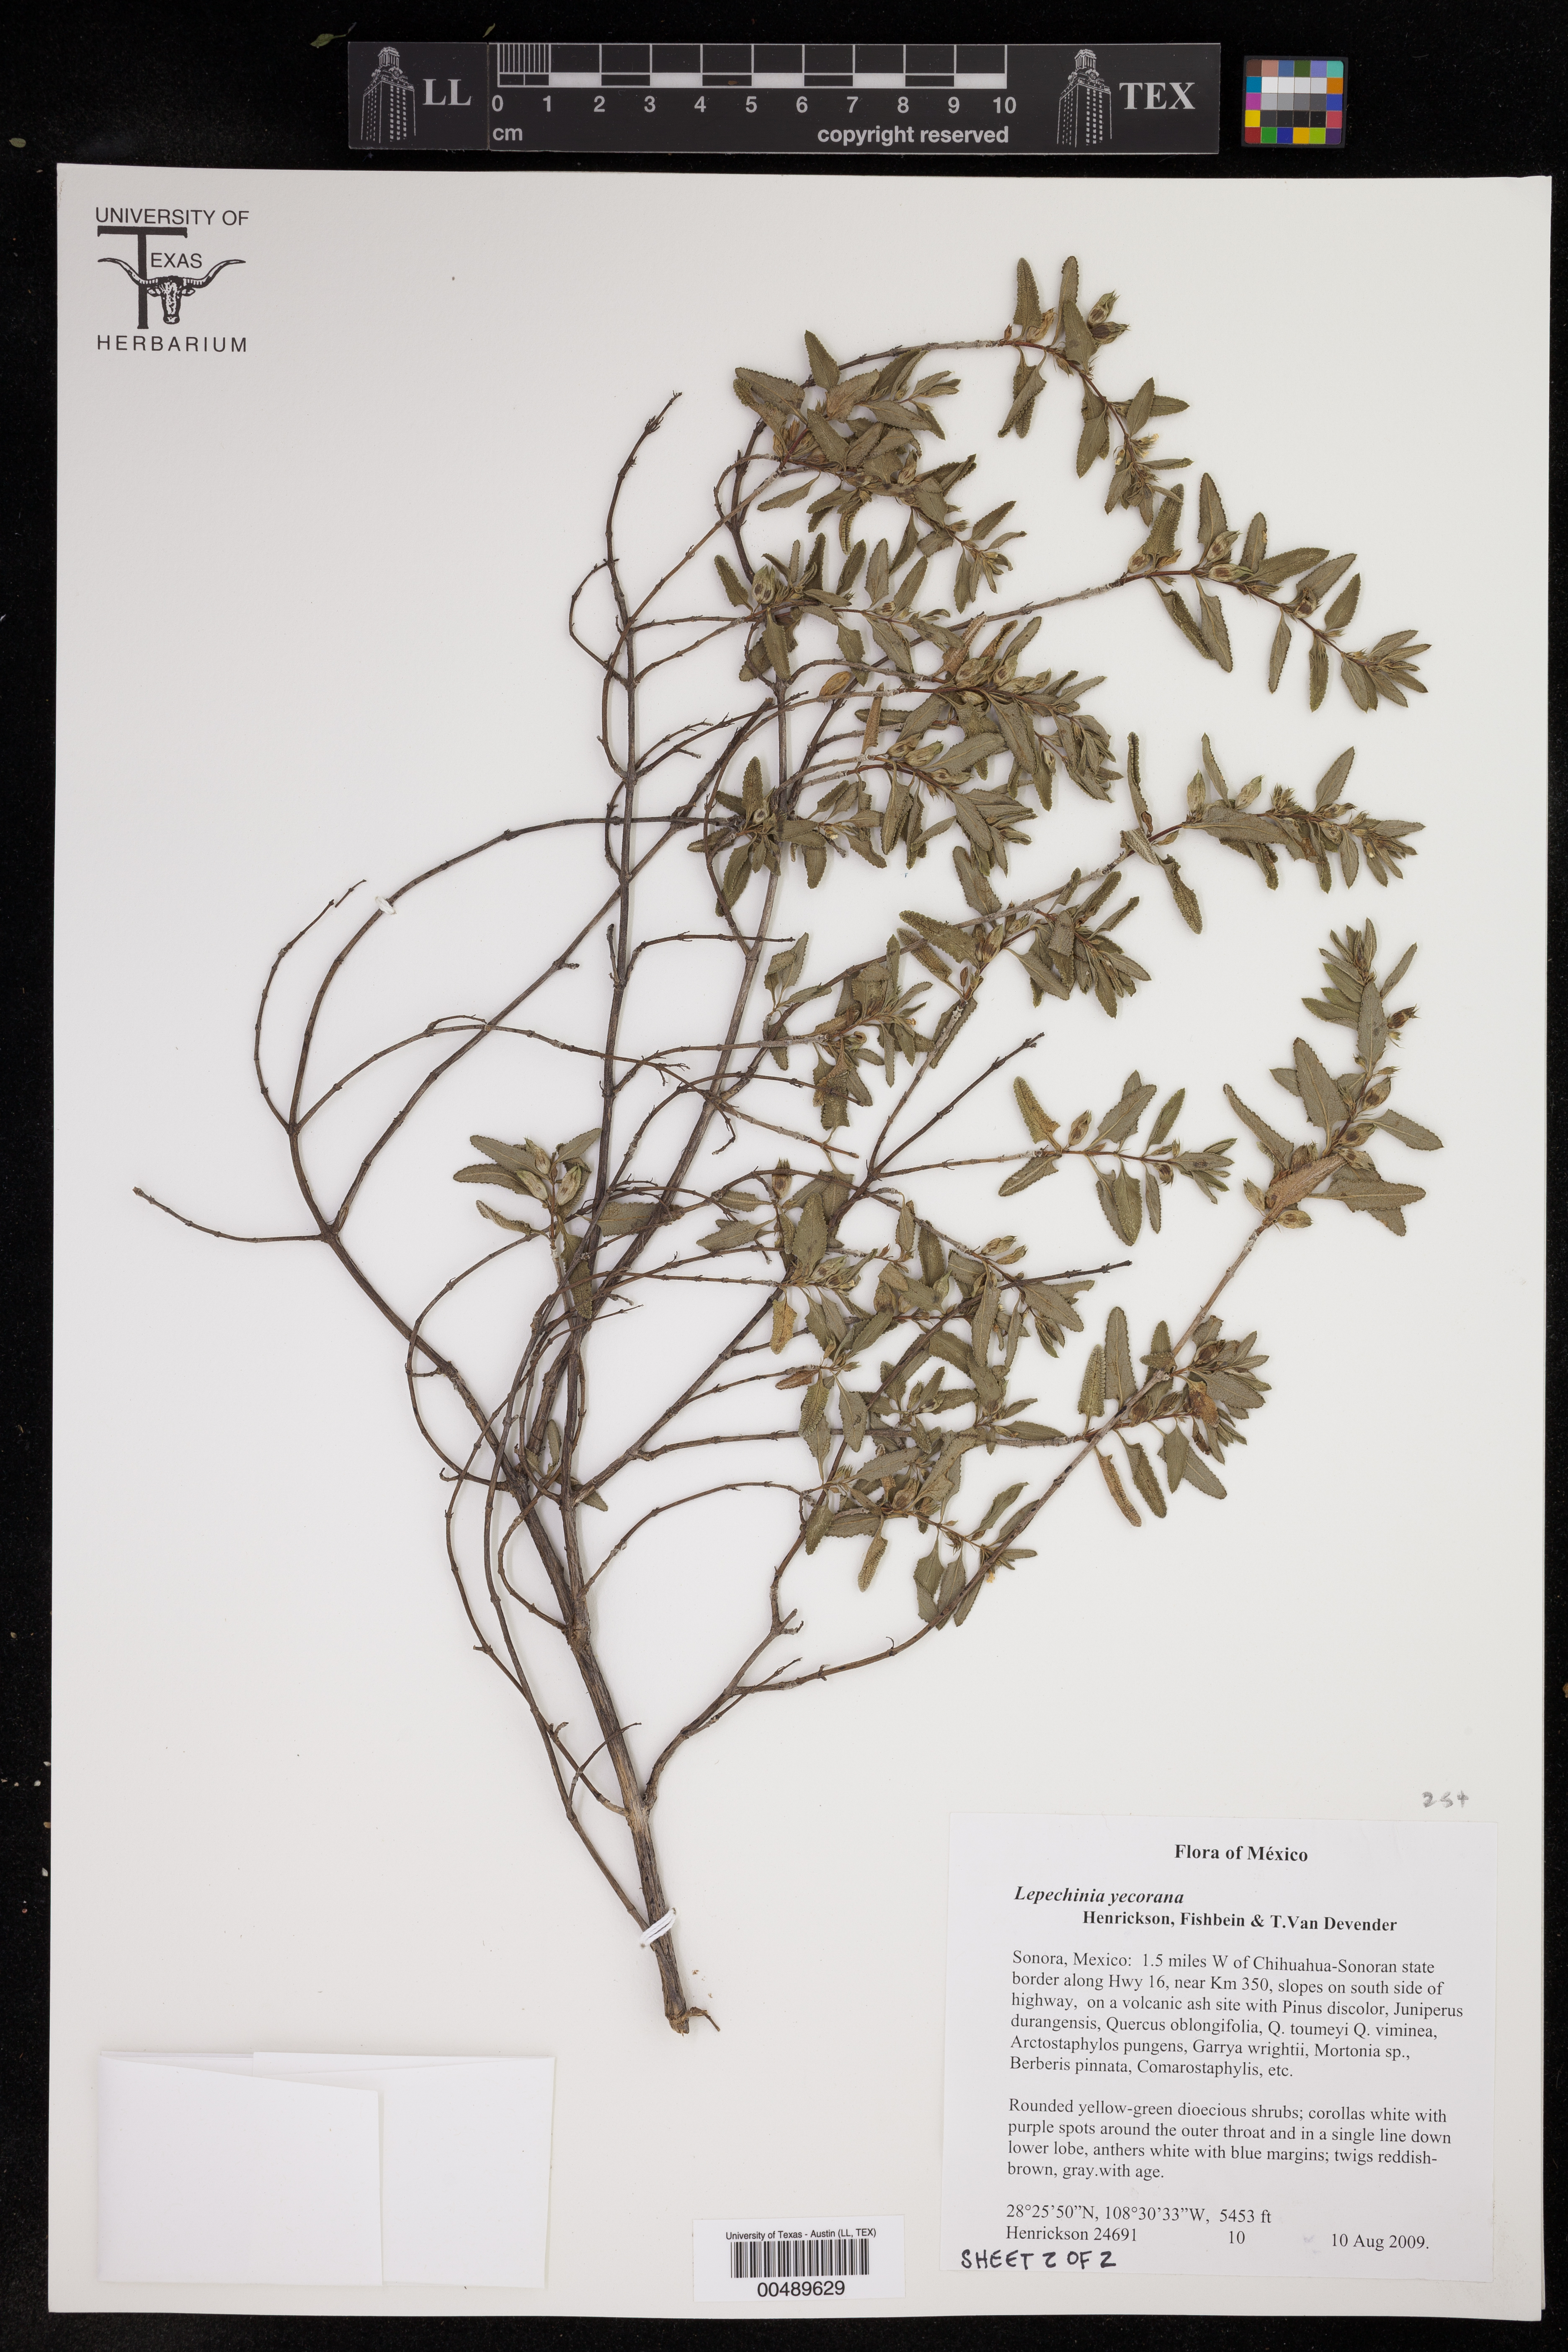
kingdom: Plantae
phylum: Tracheophyta
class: Magnoliopsida
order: Lamiales
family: Lamiaceae
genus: Lepechinia
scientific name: Lepechinia yecorana
